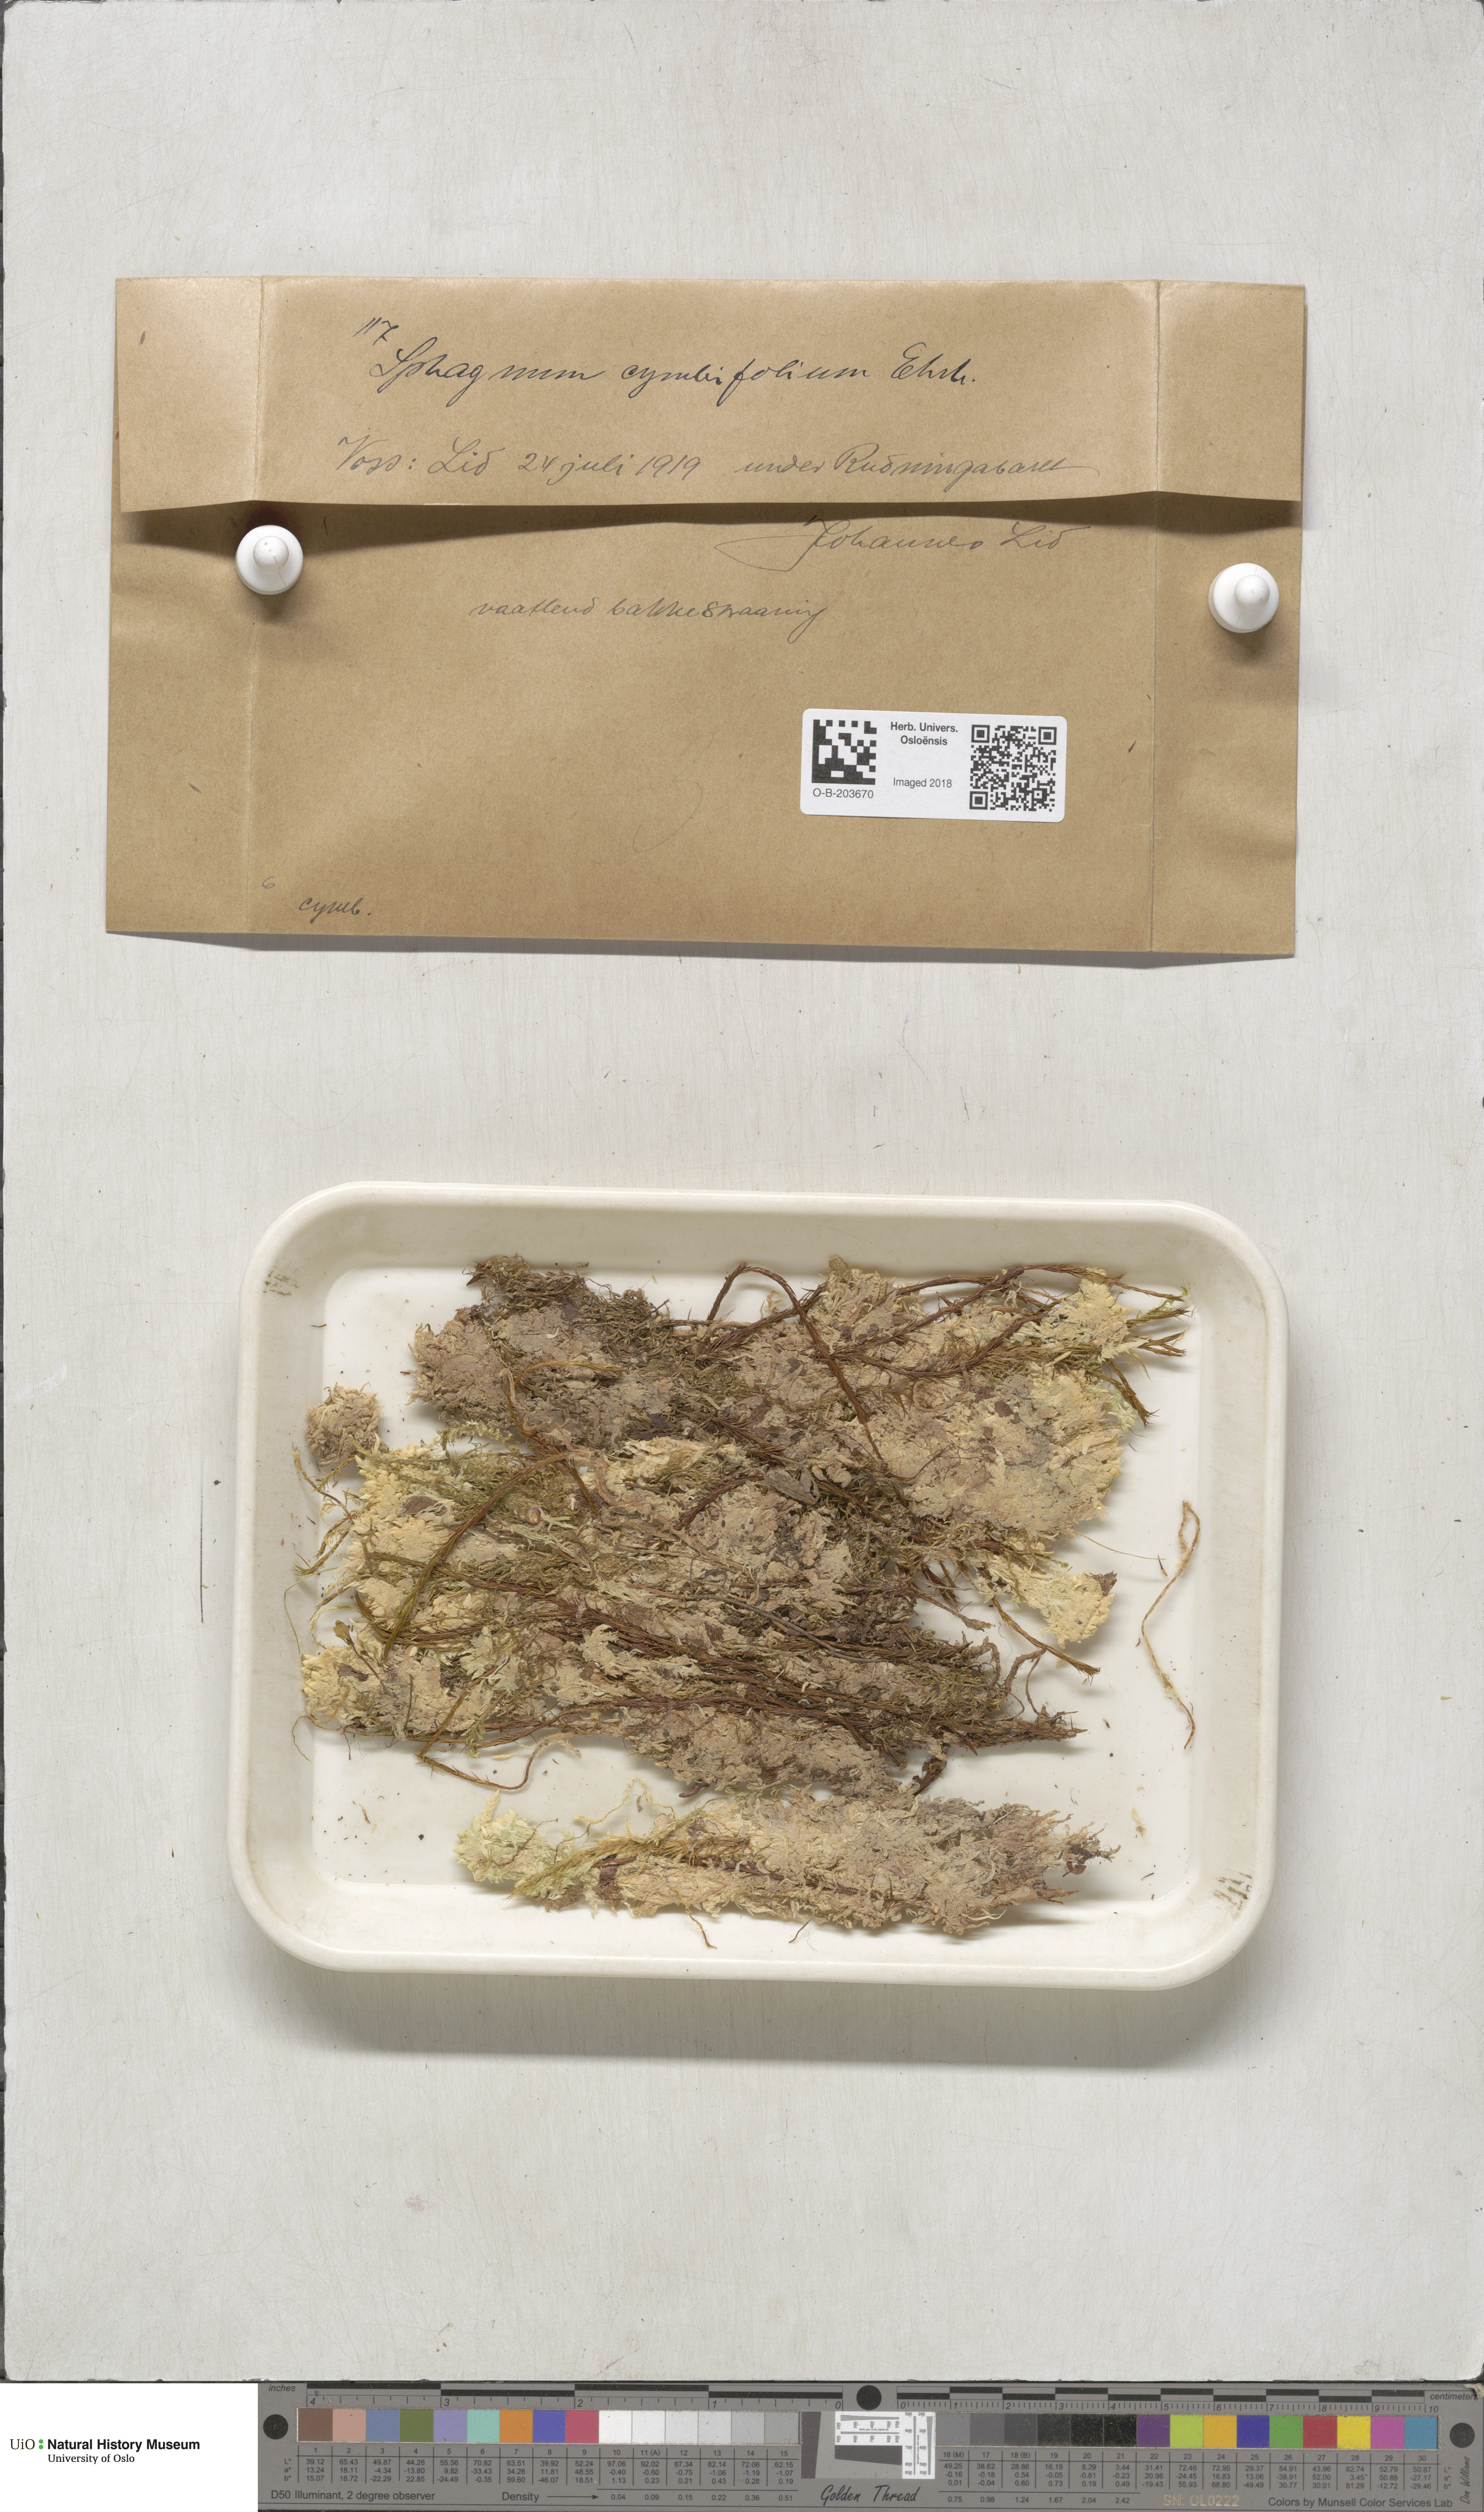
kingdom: Plantae
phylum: Bryophyta
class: Sphagnopsida
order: Sphagnales
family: Sphagnaceae
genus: Sphagnum
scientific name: Sphagnum palustre
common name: Blunt-leaved bog-moss
